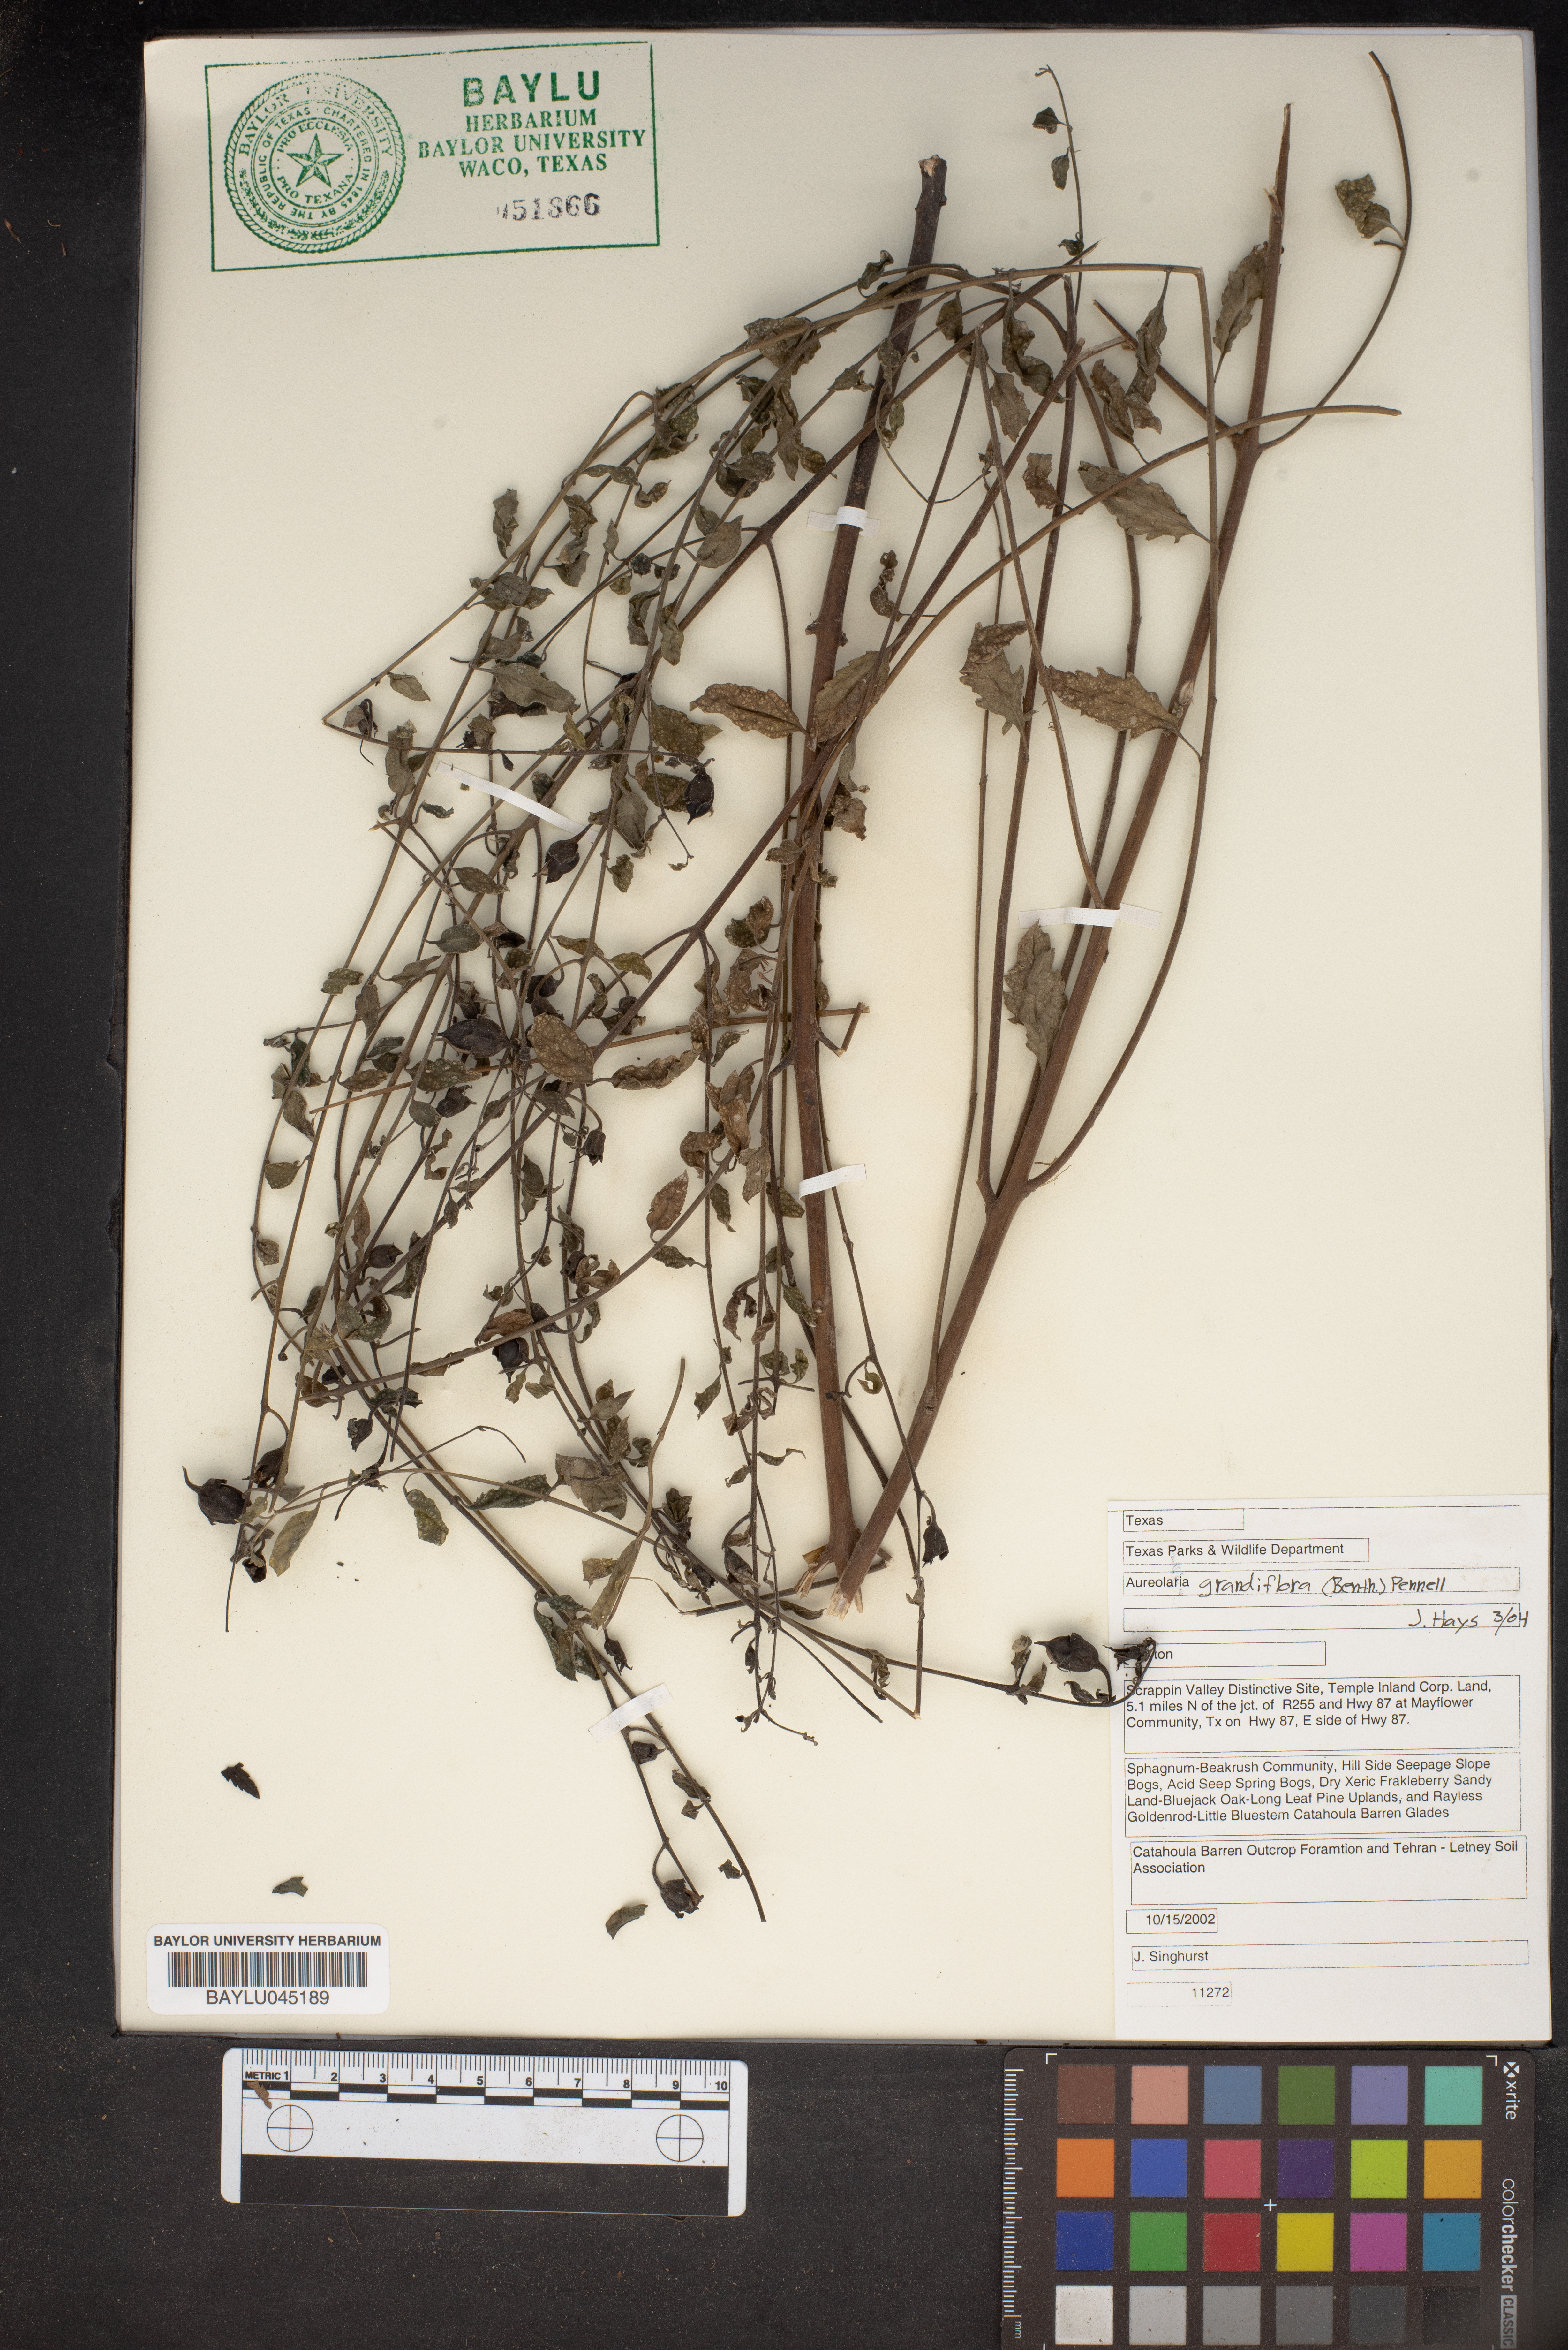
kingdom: Plantae
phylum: Tracheophyta
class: Magnoliopsida
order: Lamiales
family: Orobanchaceae
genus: Aureolaria
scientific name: Aureolaria grandiflora
